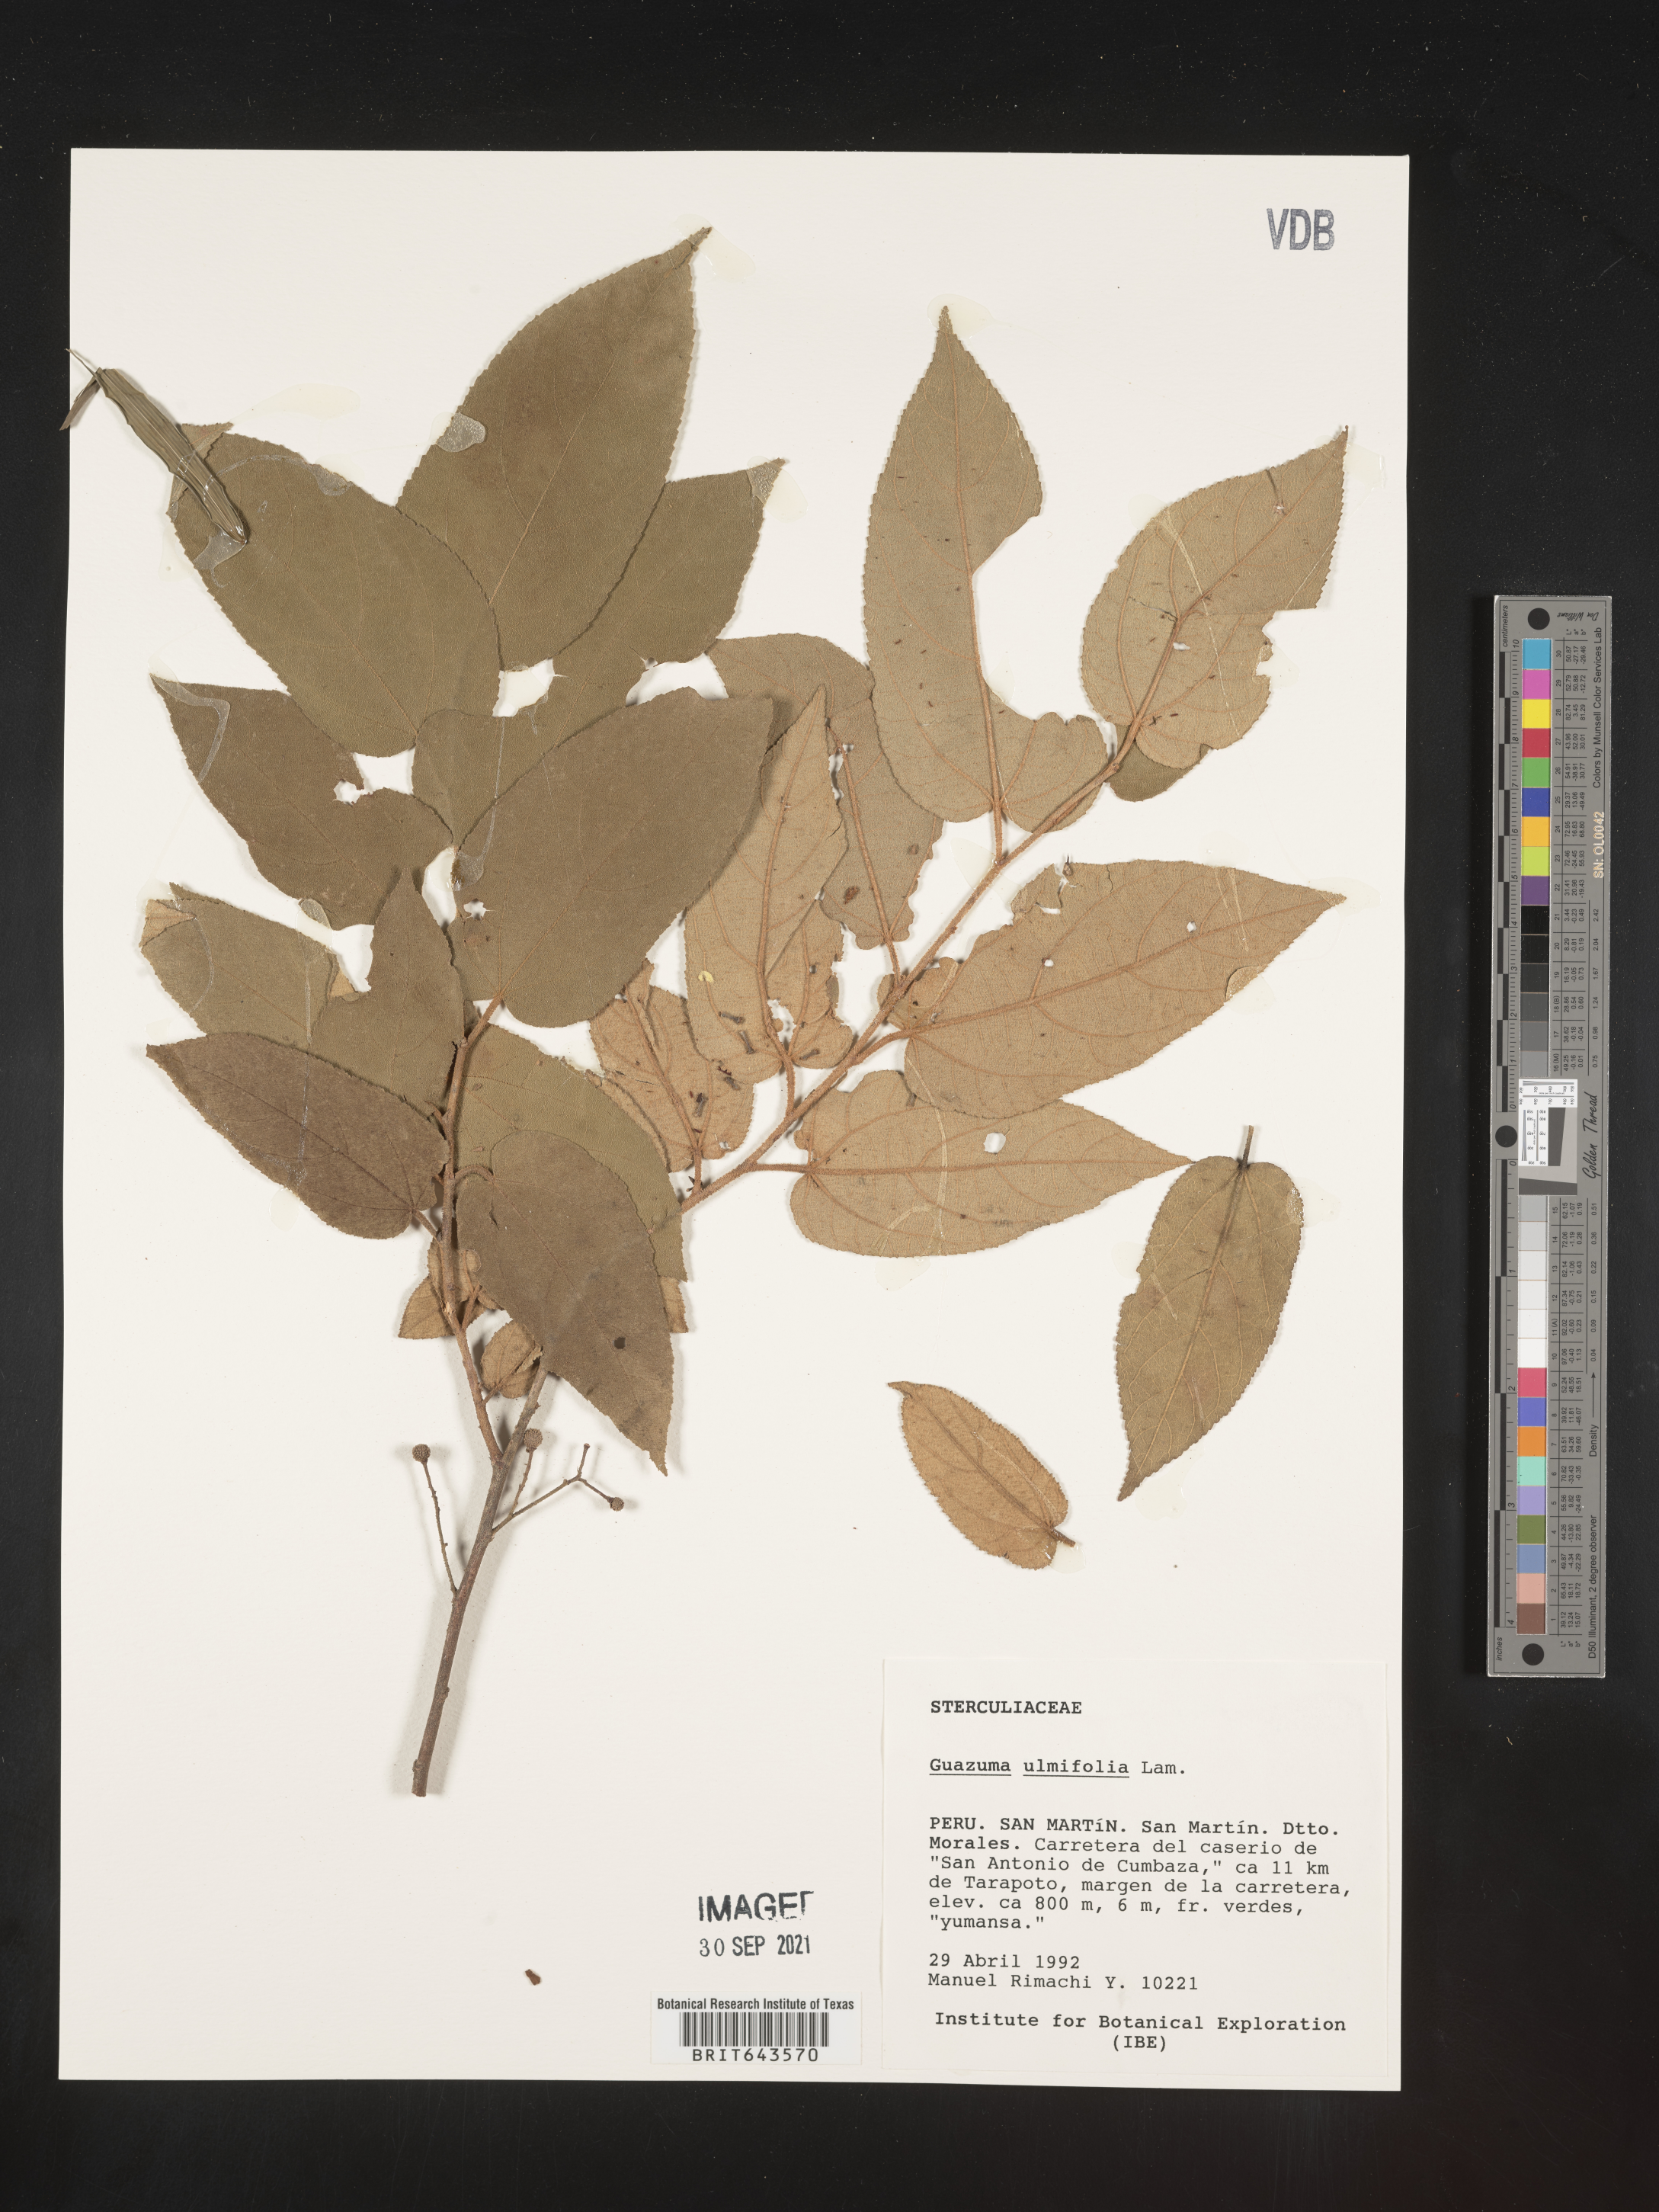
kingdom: Plantae
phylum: Tracheophyta
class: Magnoliopsida
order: Malvales
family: Malvaceae
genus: Guazuma
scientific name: Guazuma
